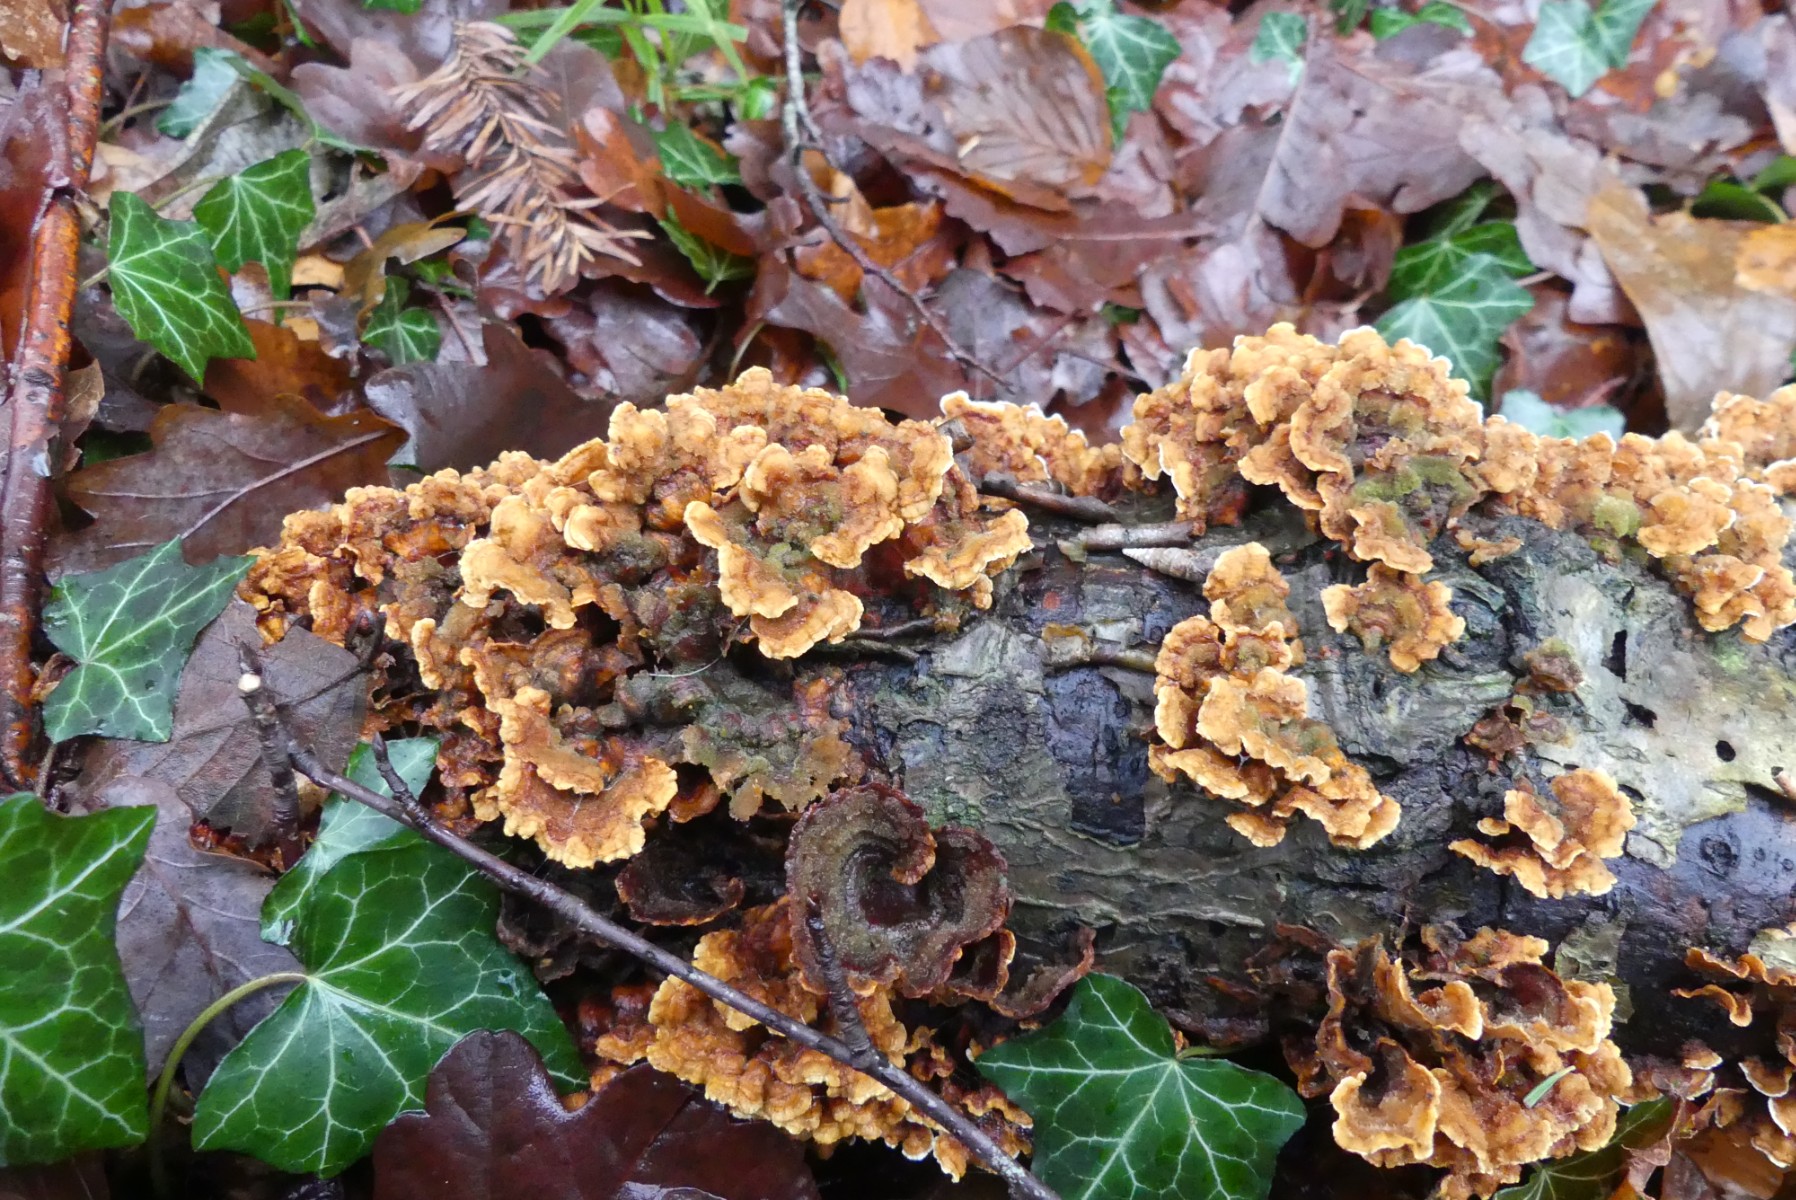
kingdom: Fungi
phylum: Basidiomycota
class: Agaricomycetes
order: Russulales
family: Stereaceae
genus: Stereum
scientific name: Stereum hirsutum
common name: håret lædersvamp
